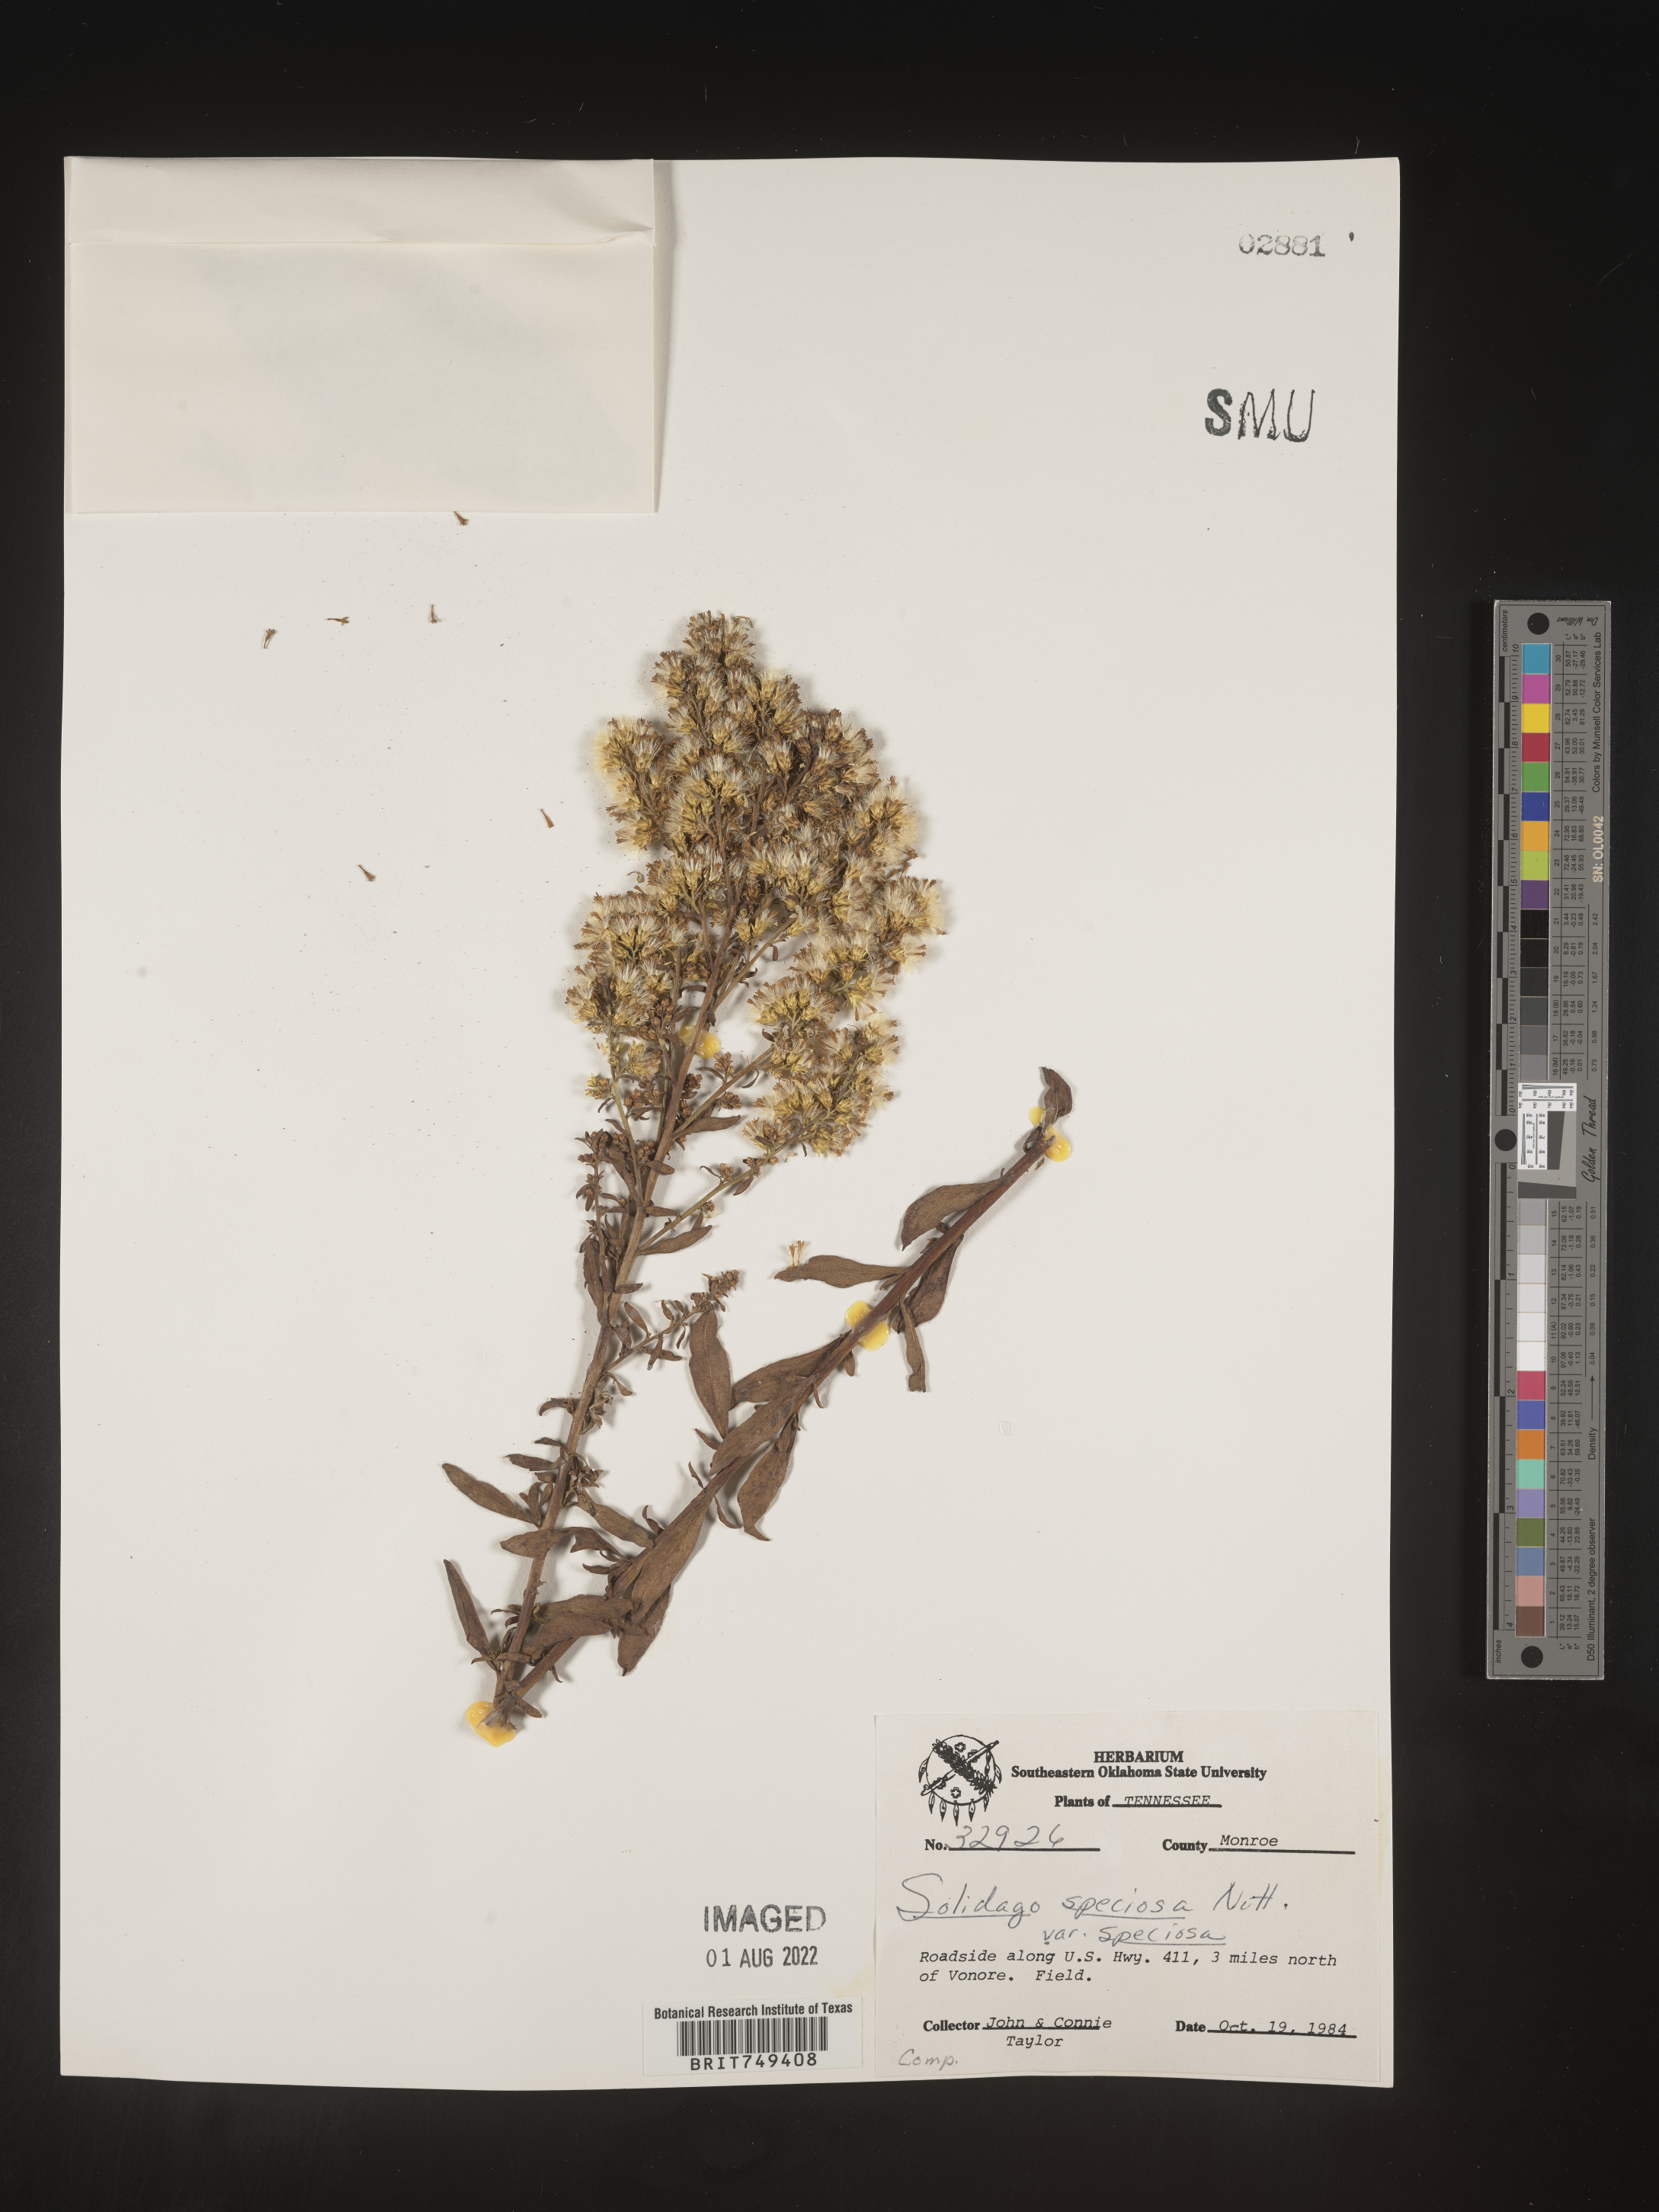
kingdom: Plantae
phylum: Tracheophyta
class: Magnoliopsida
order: Asterales
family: Asteraceae
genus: Solidago
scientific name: Solidago speciosa
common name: Showy goldenrod
